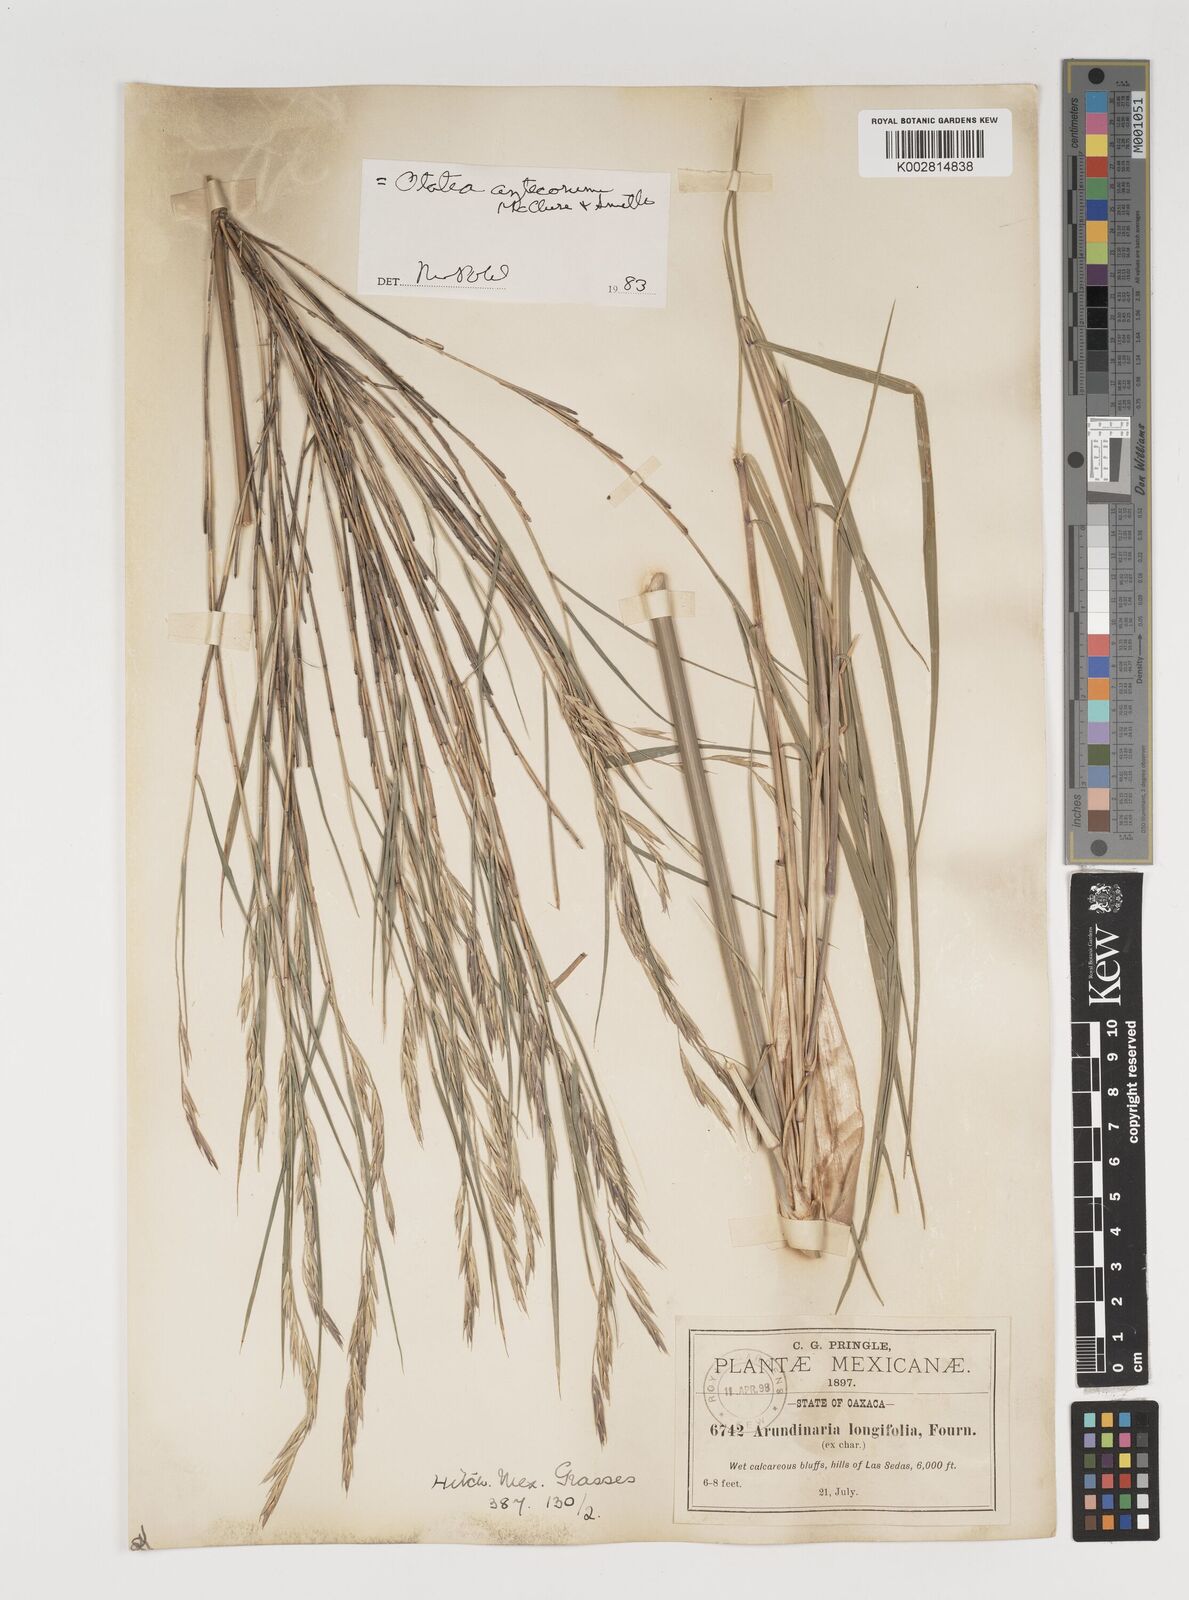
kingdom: Plantae
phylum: Tracheophyta
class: Liliopsida
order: Poales
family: Poaceae
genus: Olmeca
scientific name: Olmeca
